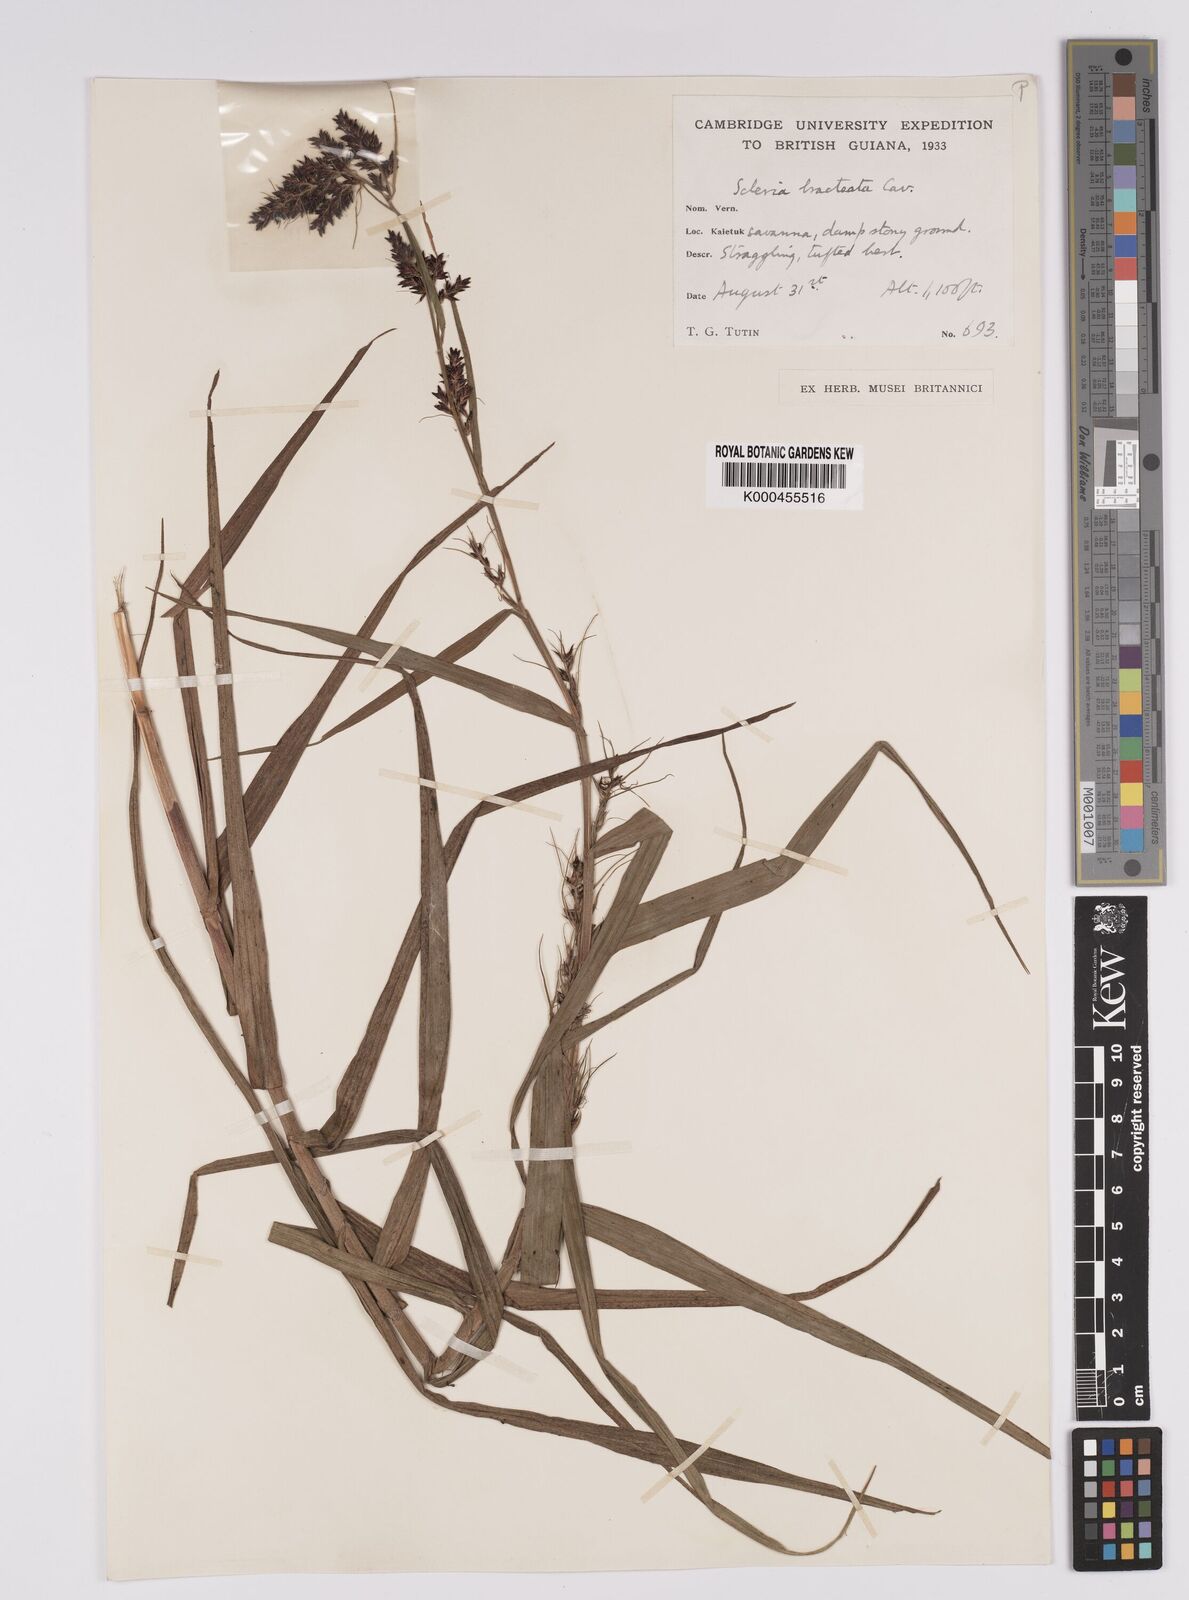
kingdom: Plantae
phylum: Tracheophyta
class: Liliopsida
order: Poales
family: Cyperaceae
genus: Scleria
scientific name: Scleria bracteata
